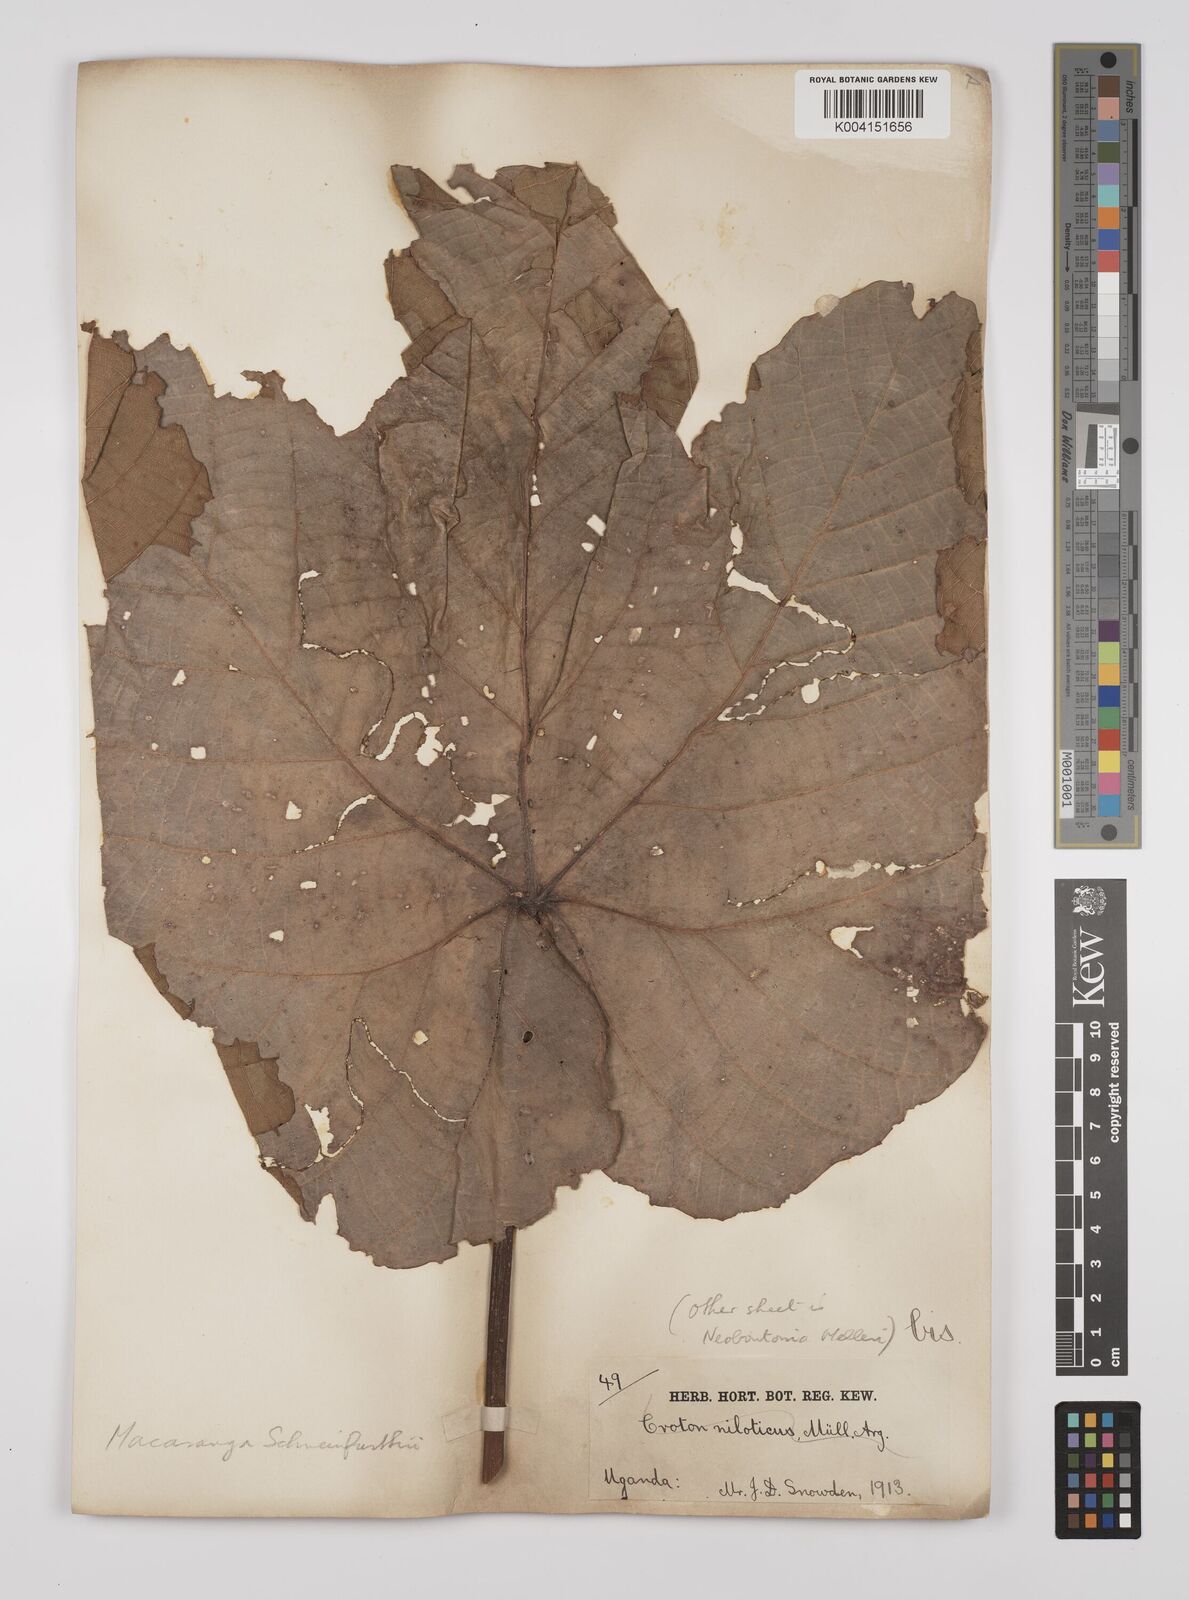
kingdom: Plantae
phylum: Tracheophyta
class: Magnoliopsida
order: Malpighiales
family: Euphorbiaceae
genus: Macaranga
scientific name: Macaranga schweinfurthii
